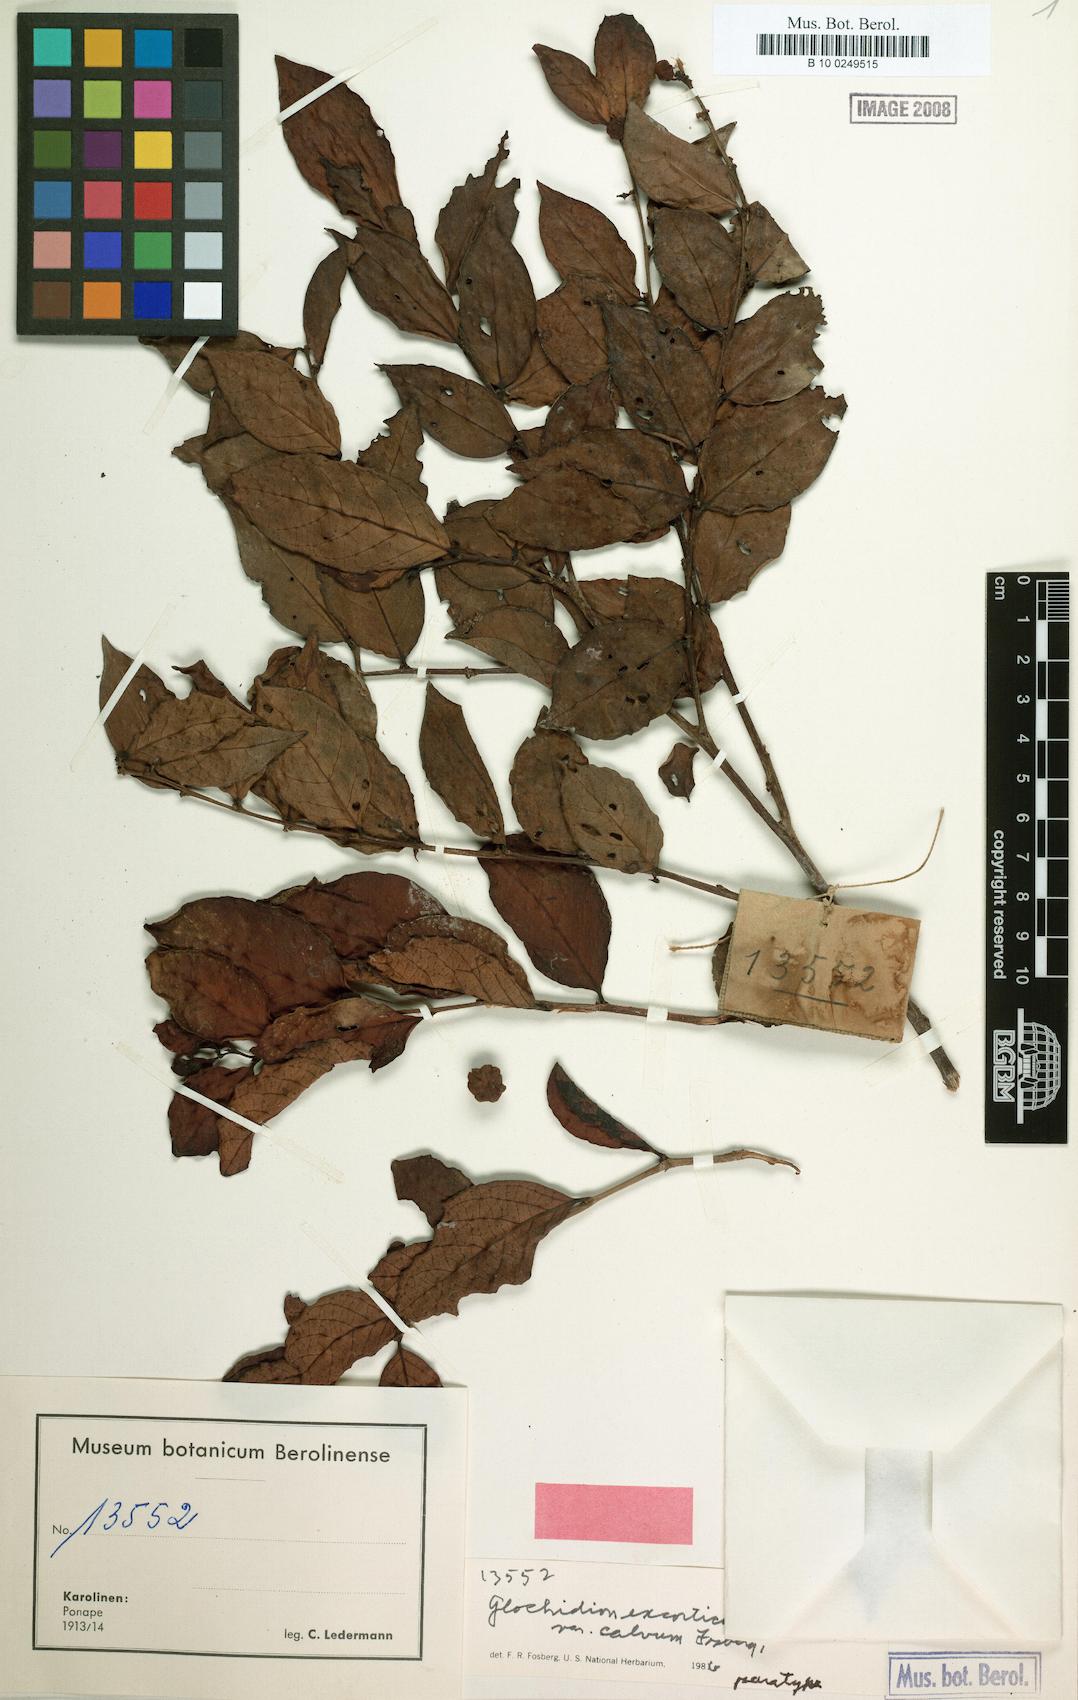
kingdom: Plantae
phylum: Tracheophyta
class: Magnoliopsida
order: Malpighiales
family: Phyllanthaceae
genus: Glochidion
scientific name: Glochidion ponapense
